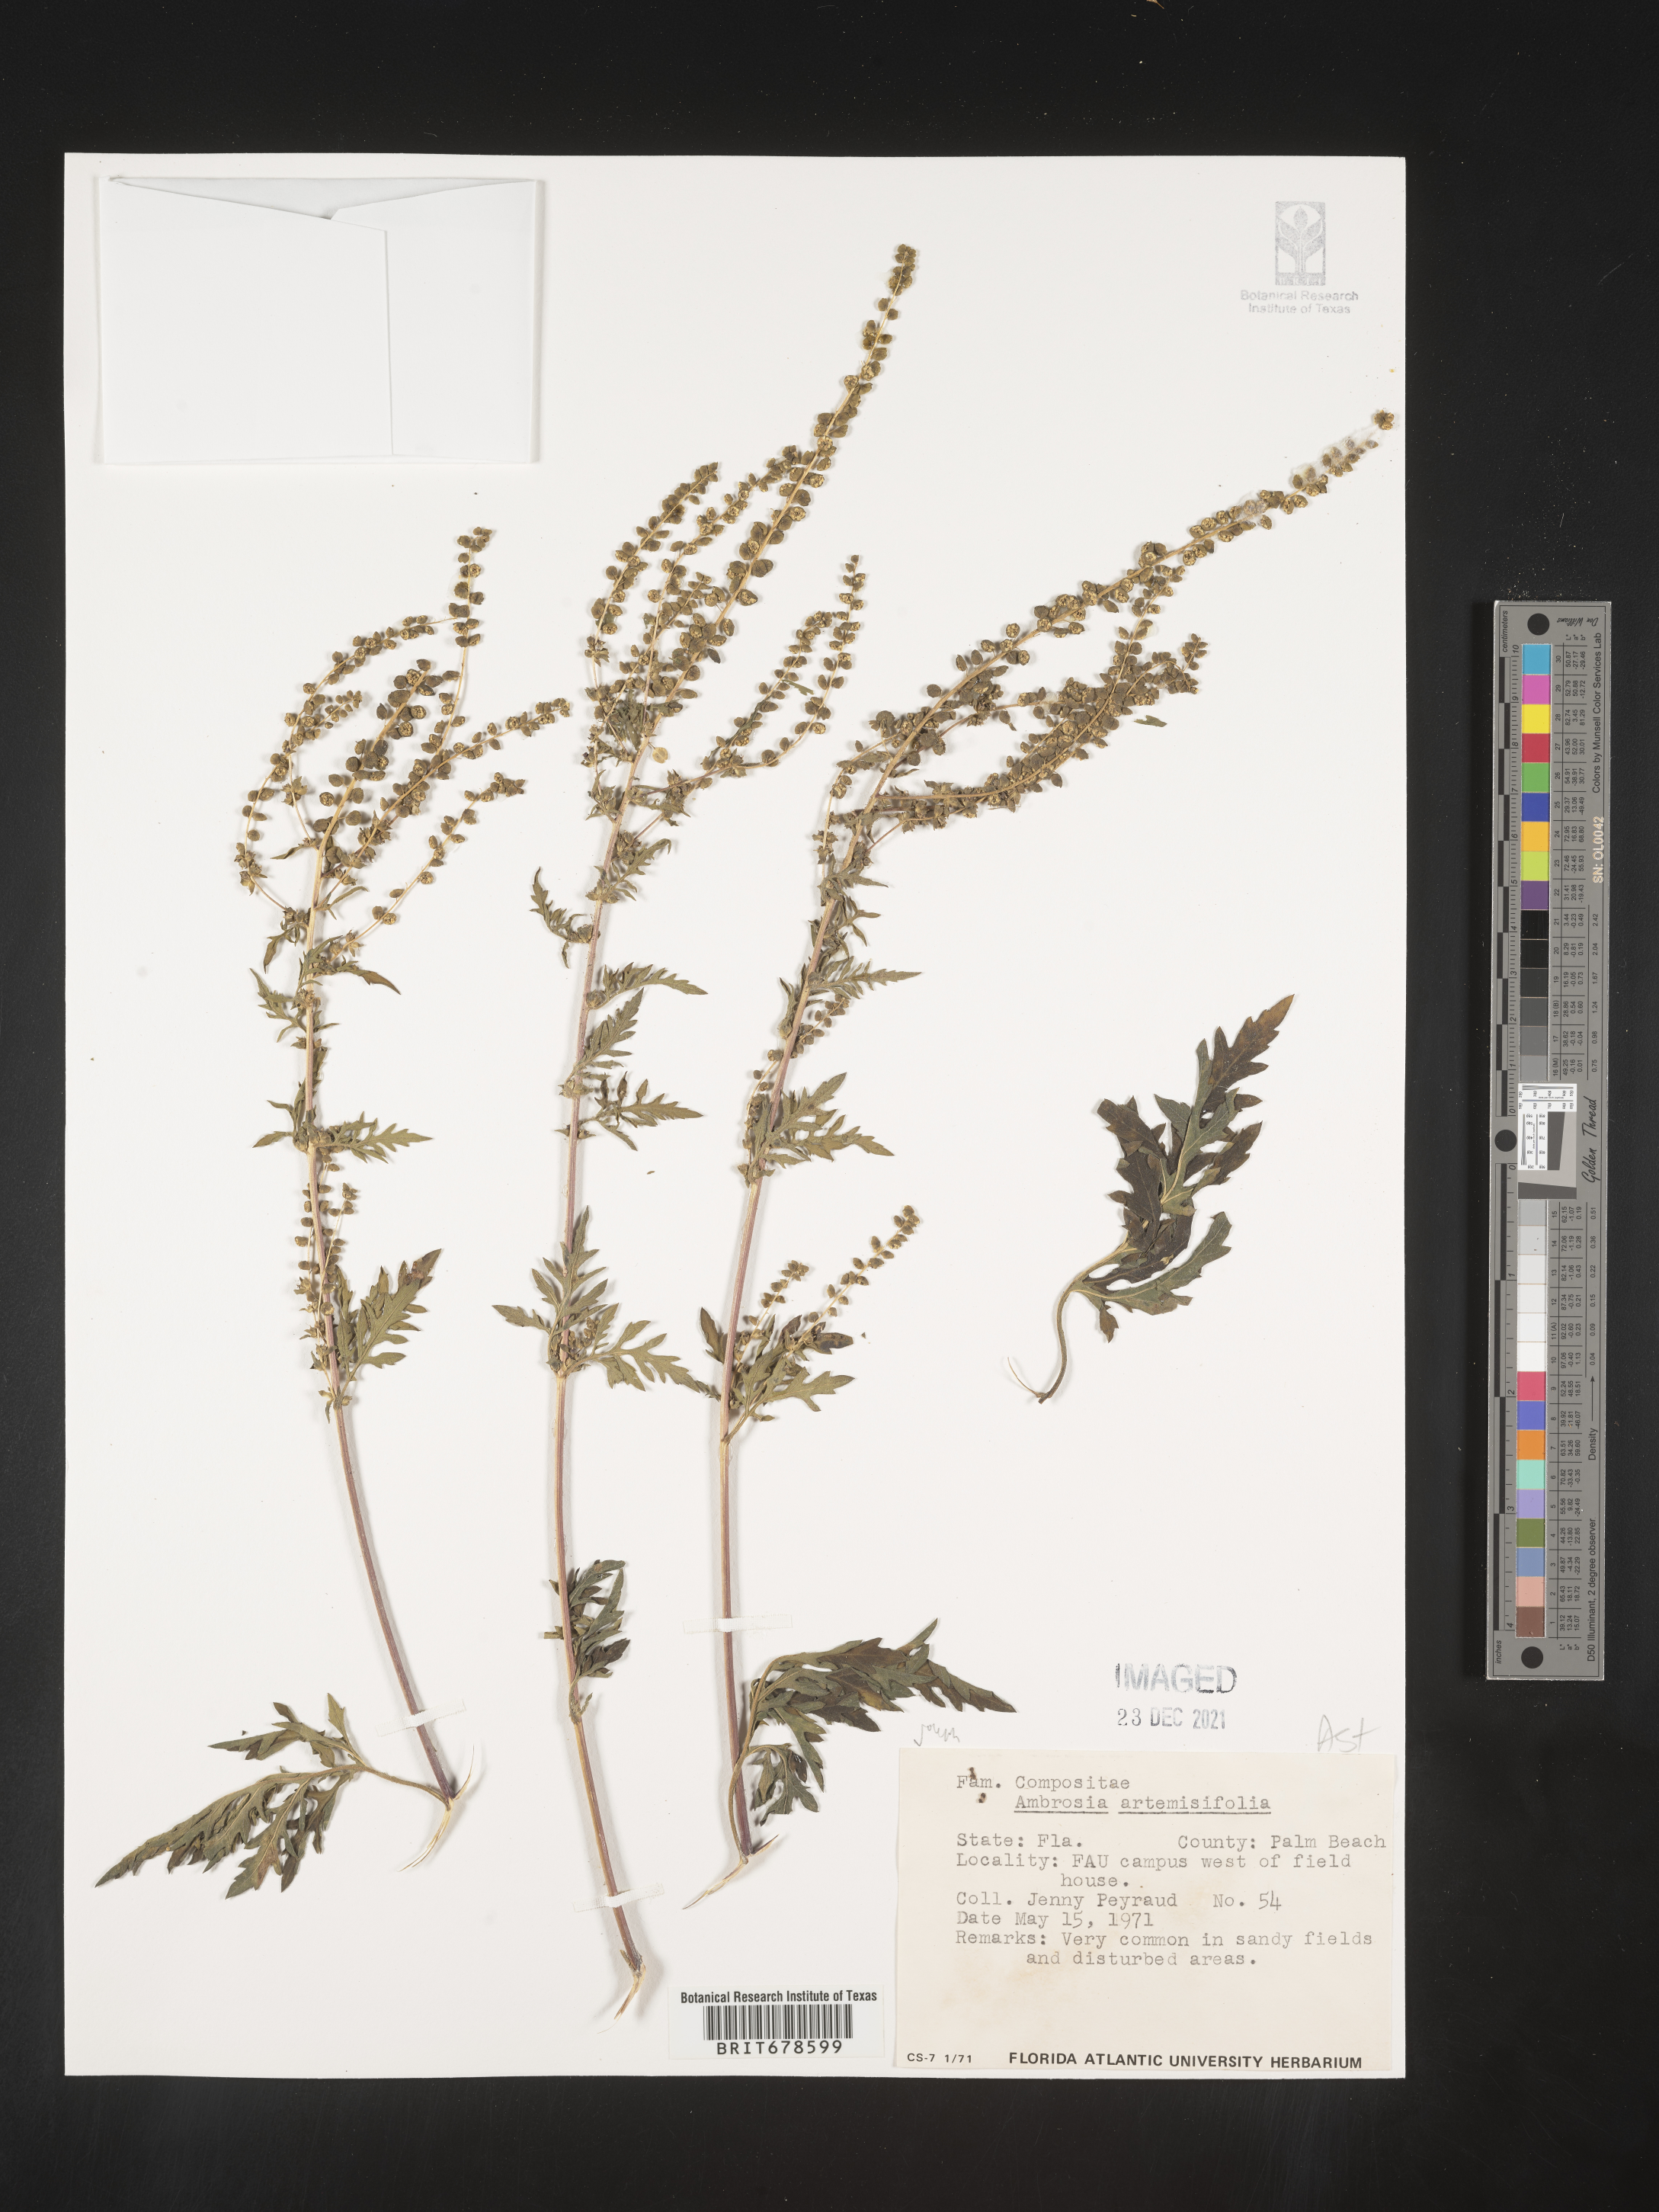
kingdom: Plantae
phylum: Tracheophyta
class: Magnoliopsida
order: Asterales
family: Asteraceae
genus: Ambrosia
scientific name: Ambrosia polystachya
